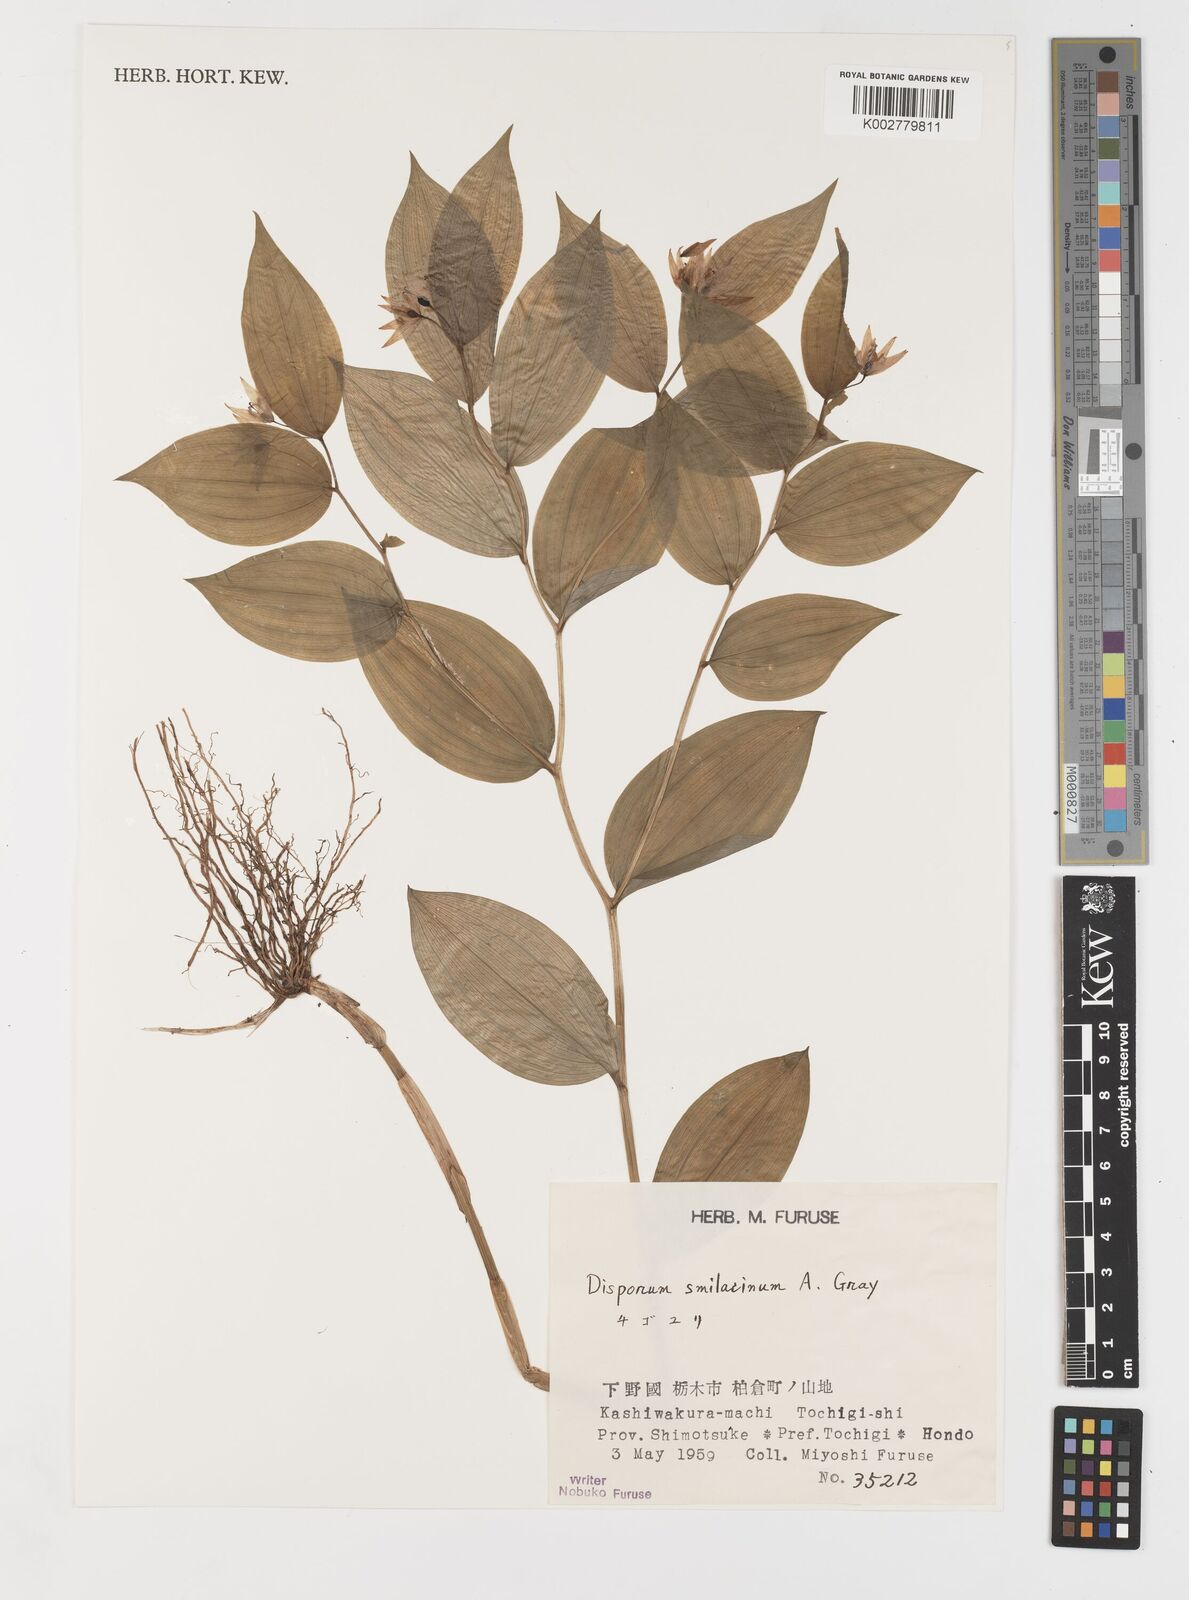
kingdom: Plantae
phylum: Tracheophyta
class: Liliopsida
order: Liliales
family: Colchicaceae
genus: Disporum
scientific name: Disporum smilacinum
